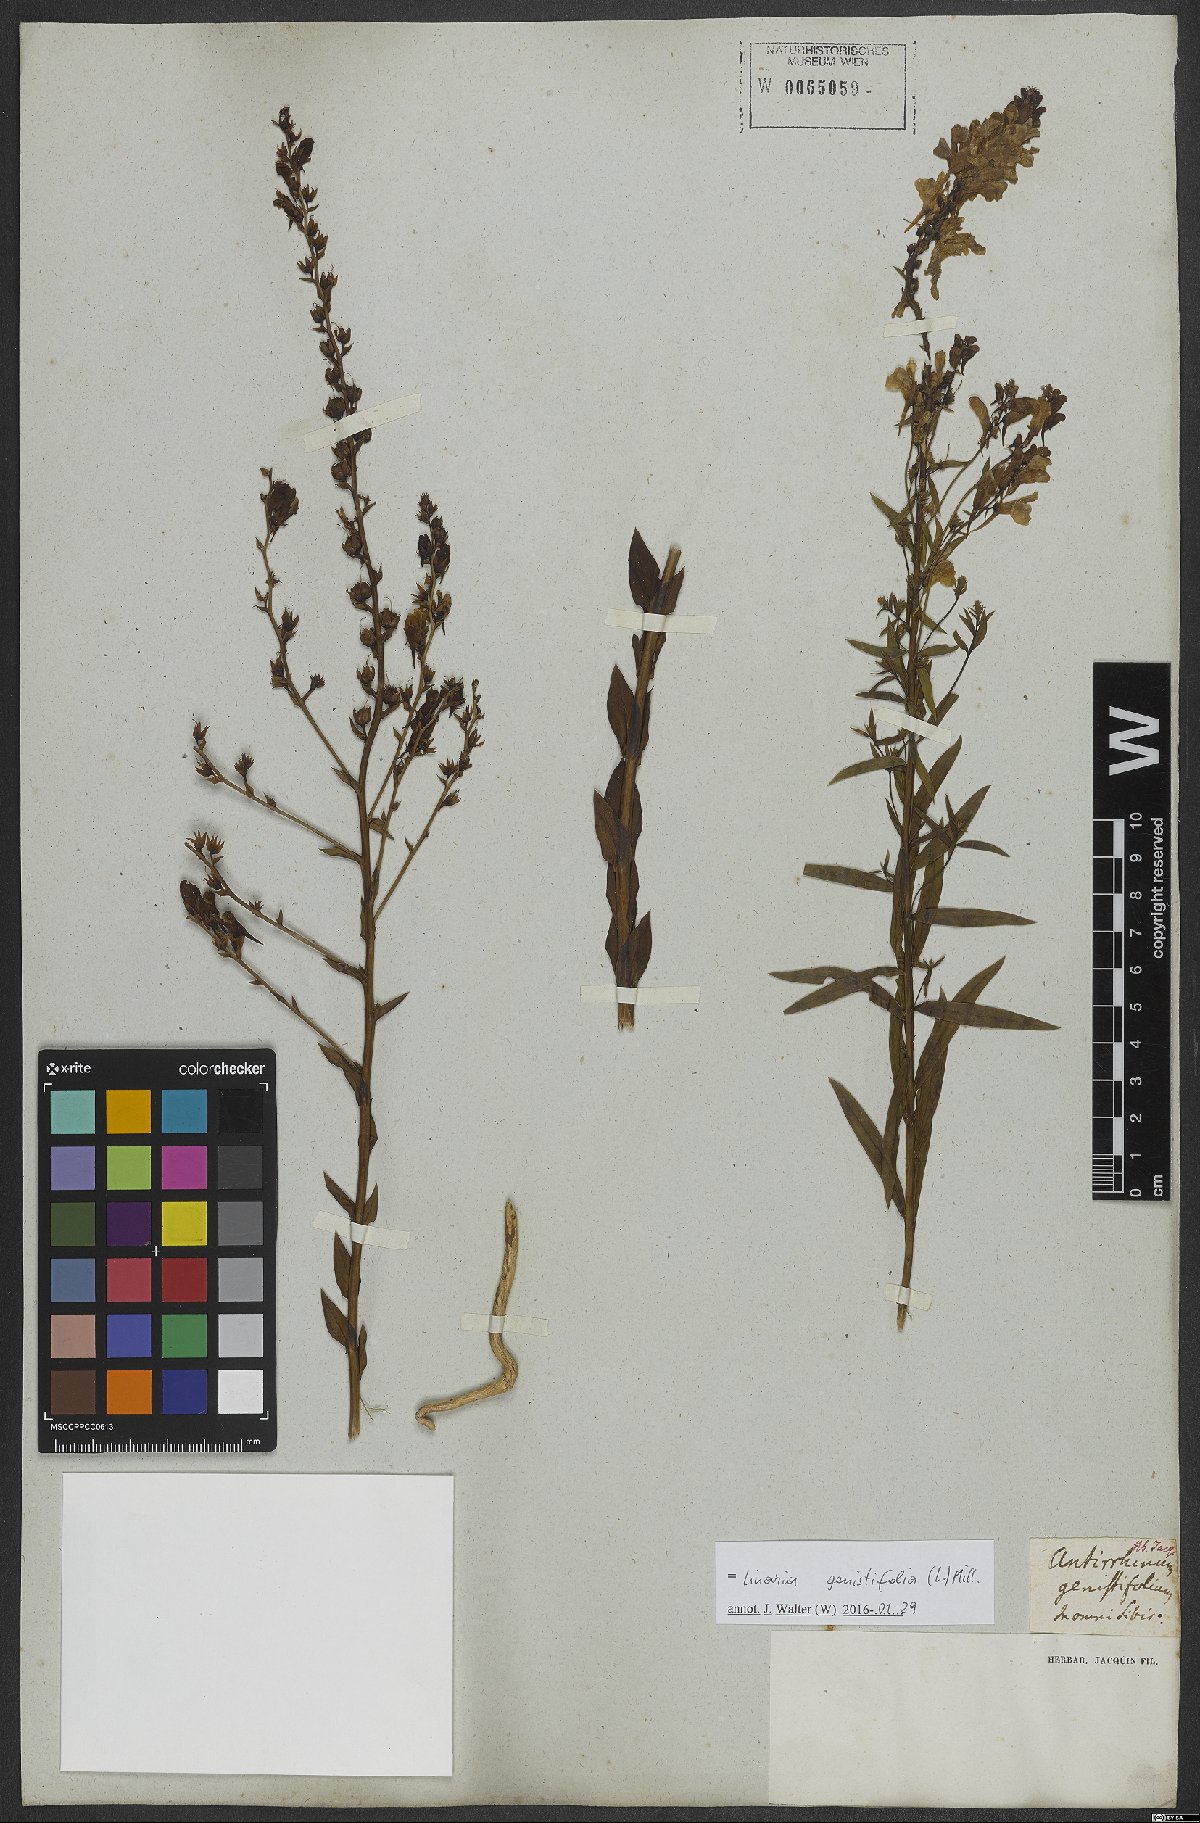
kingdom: Plantae
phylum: Tracheophyta
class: Magnoliopsida
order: Lamiales
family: Plantaginaceae
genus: Linaria
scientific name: Linaria genistifolia
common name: Broomleaf toadflax
